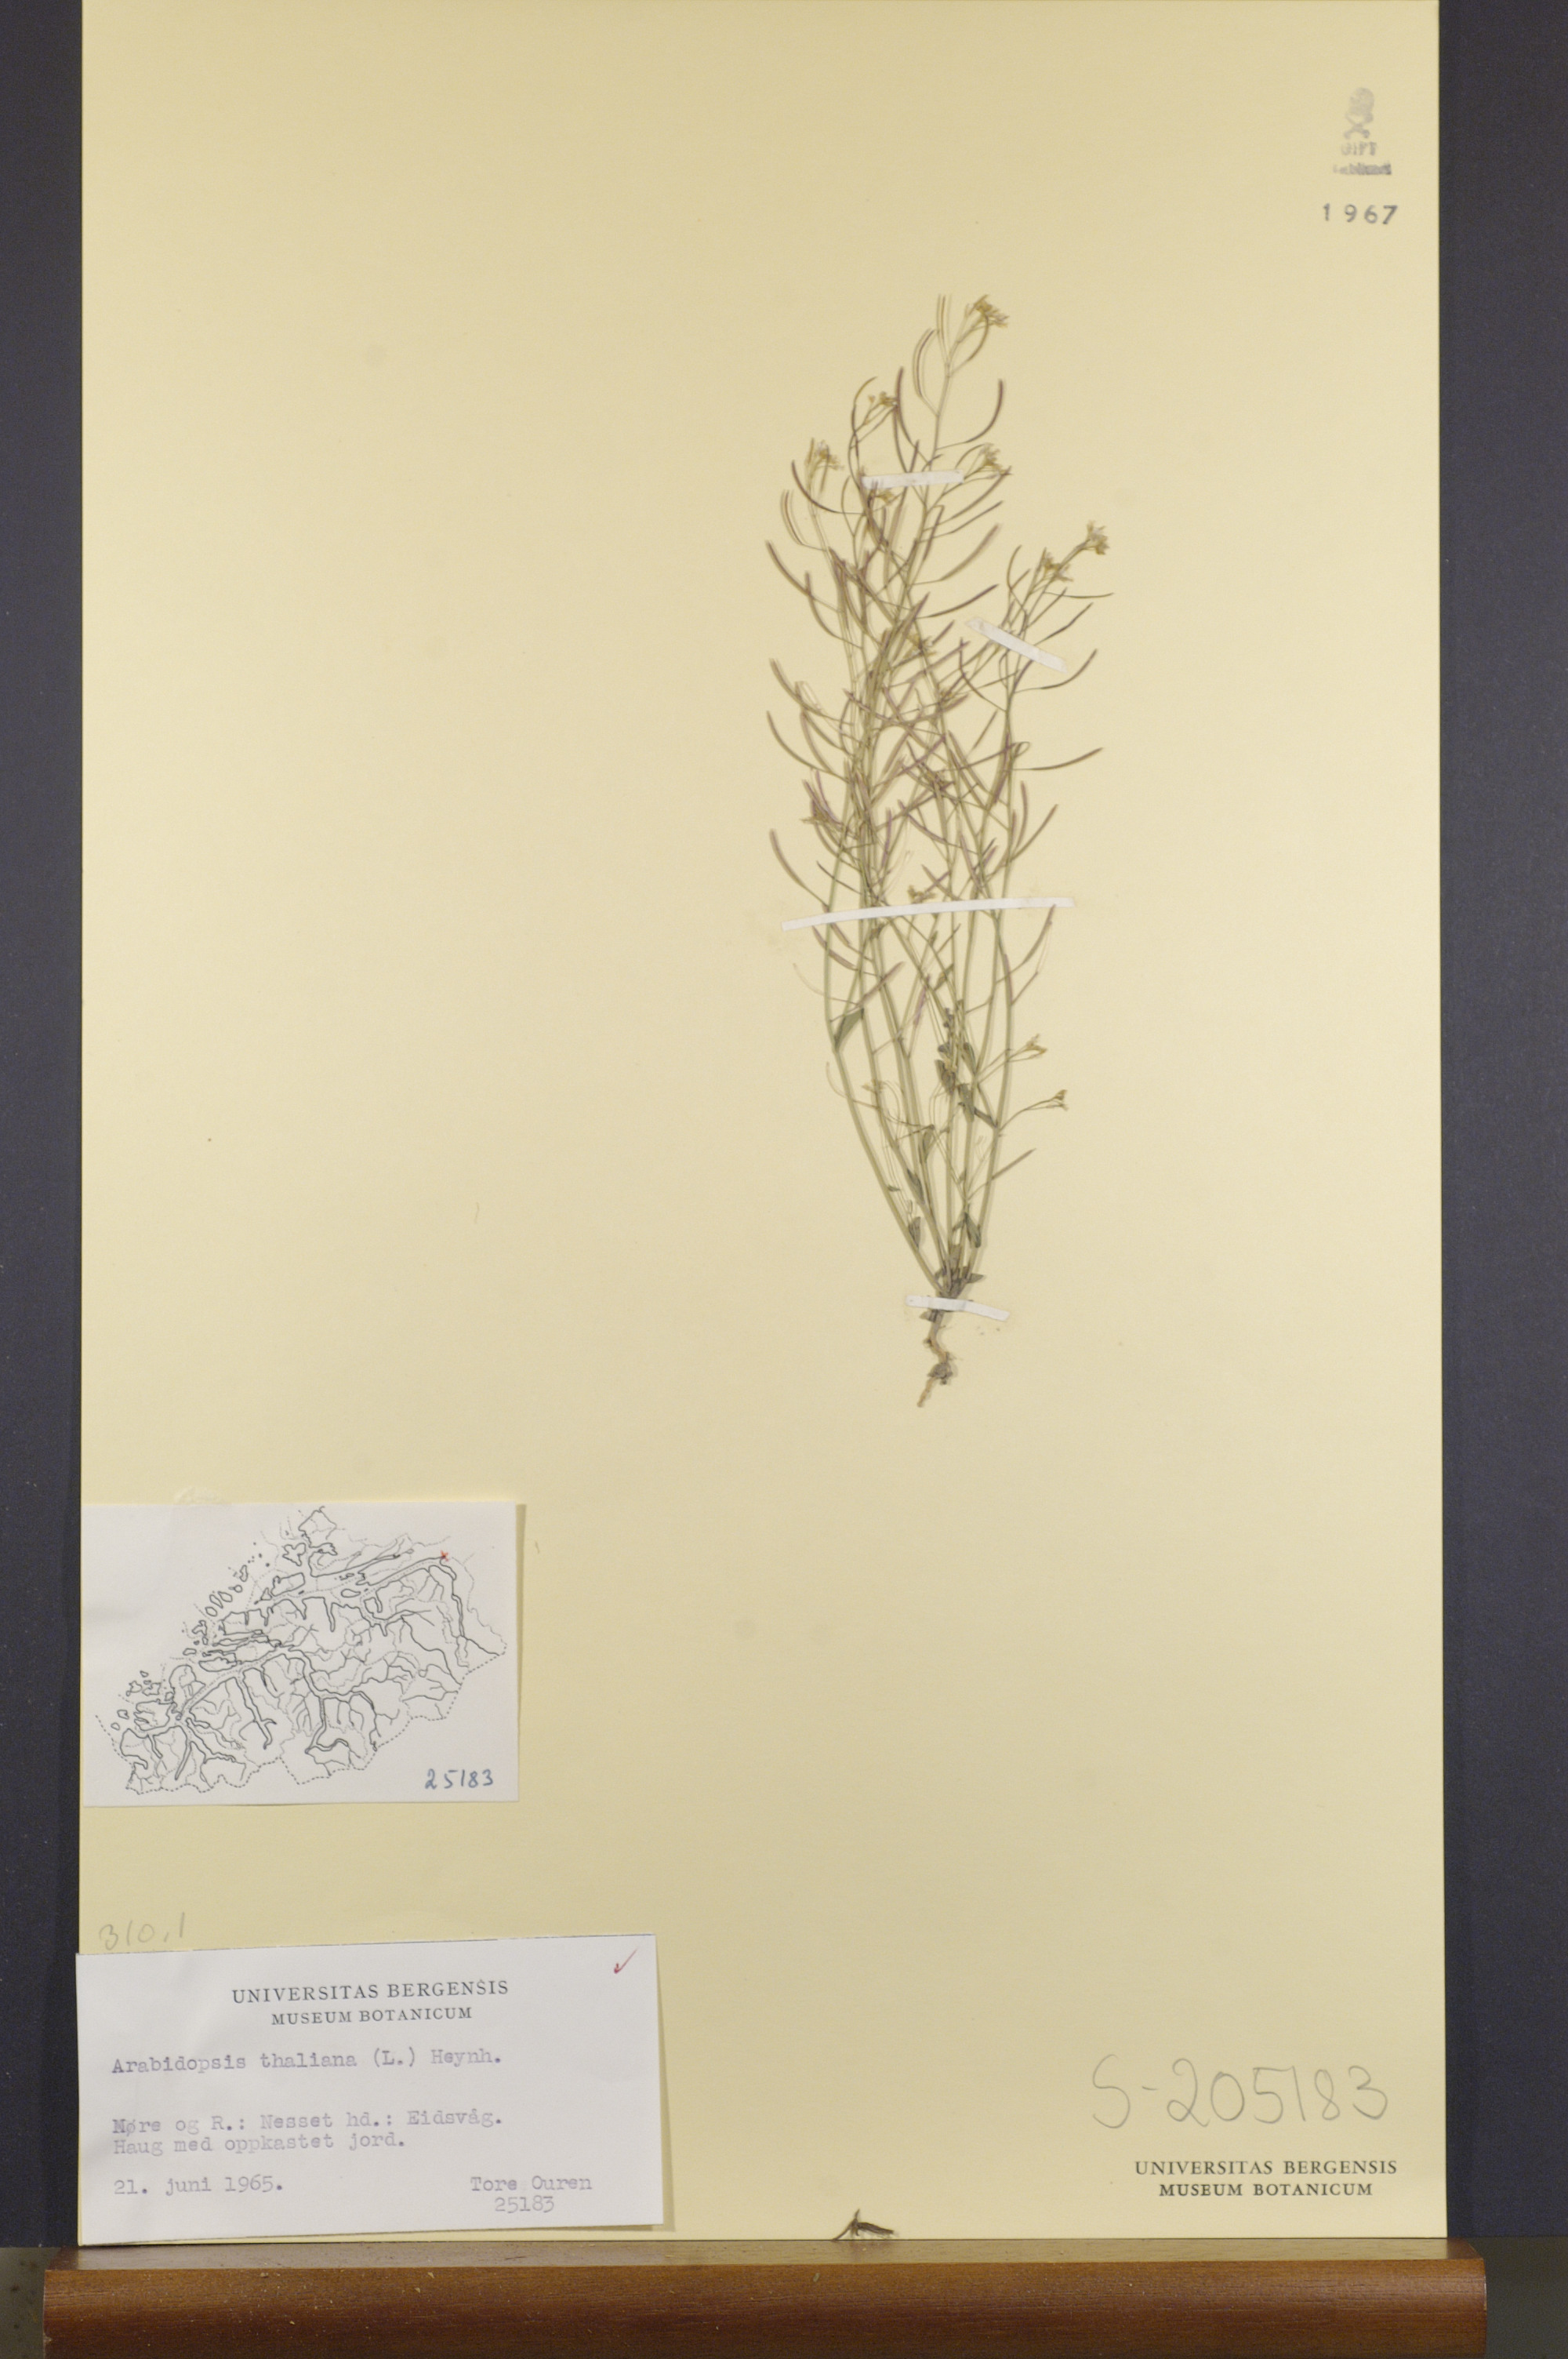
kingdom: Plantae
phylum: Tracheophyta
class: Magnoliopsida
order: Brassicales
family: Brassicaceae
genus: Arabidopsis
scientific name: Arabidopsis thaliana
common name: Thale cress
